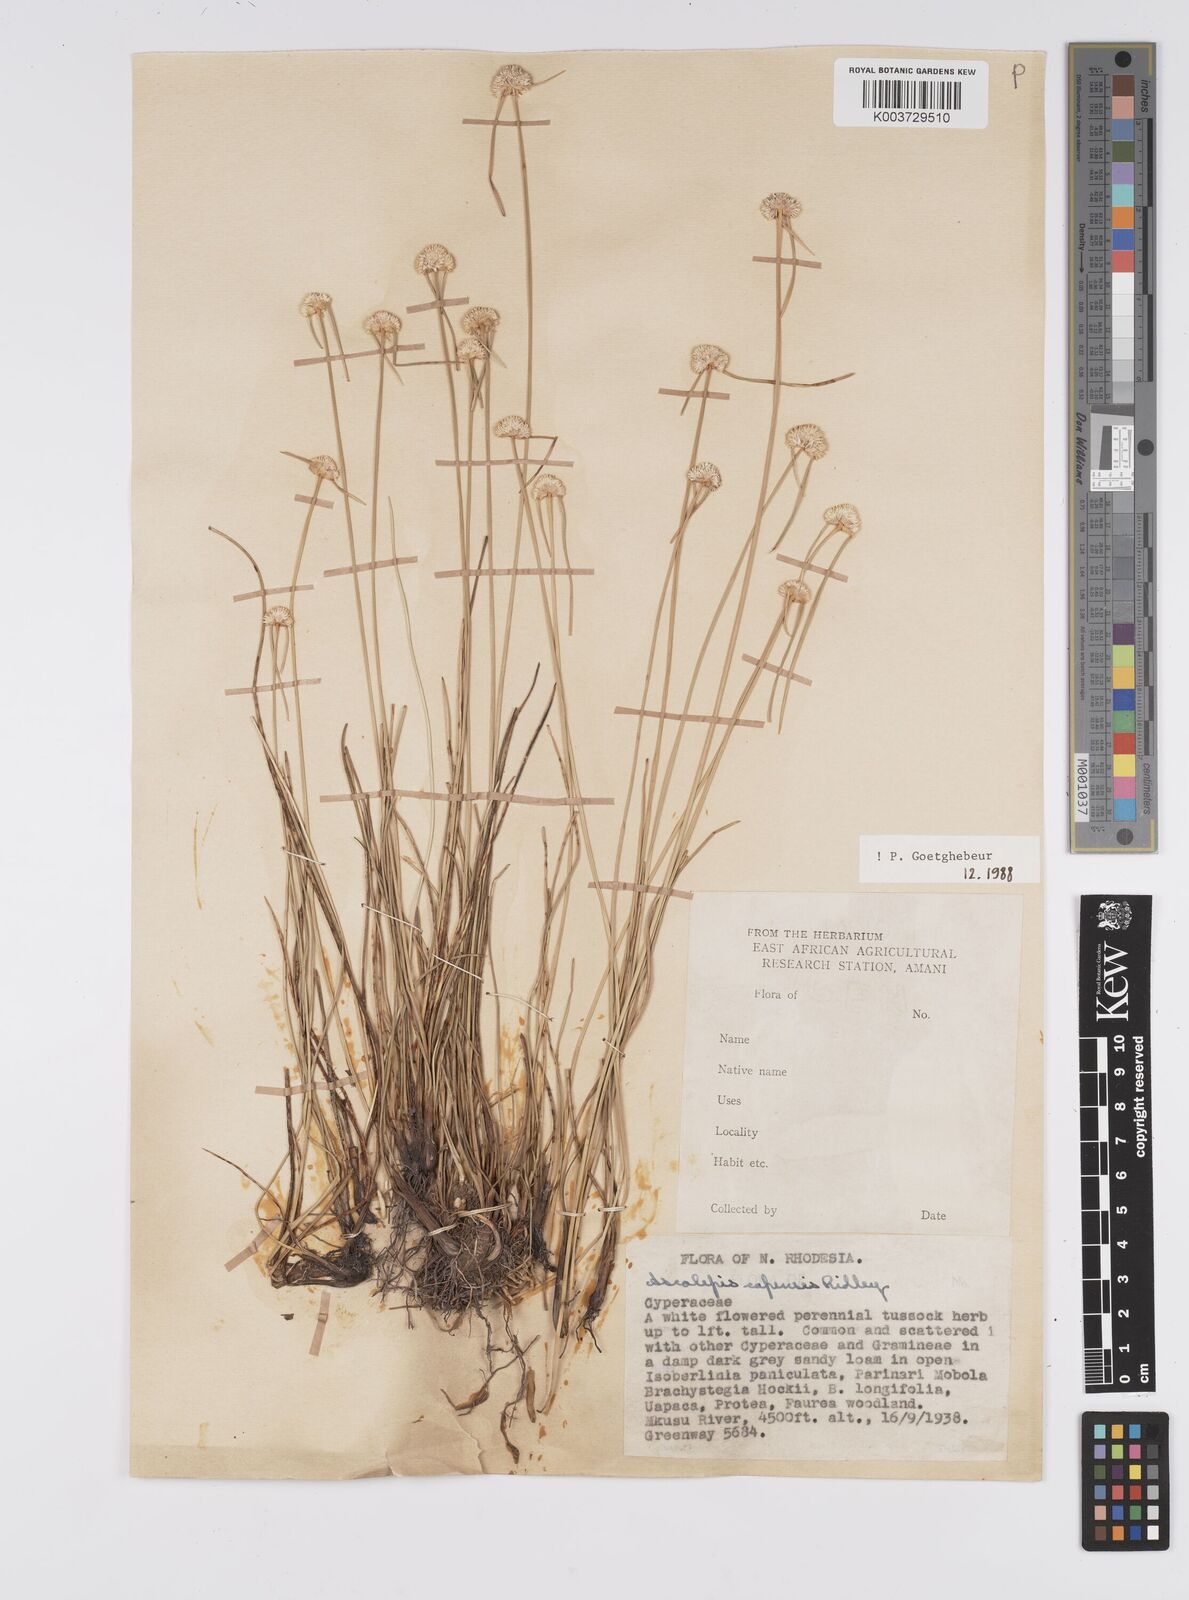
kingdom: Plantae
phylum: Tracheophyta
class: Liliopsida
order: Poales
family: Cyperaceae
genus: Cyperus
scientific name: Cyperus
